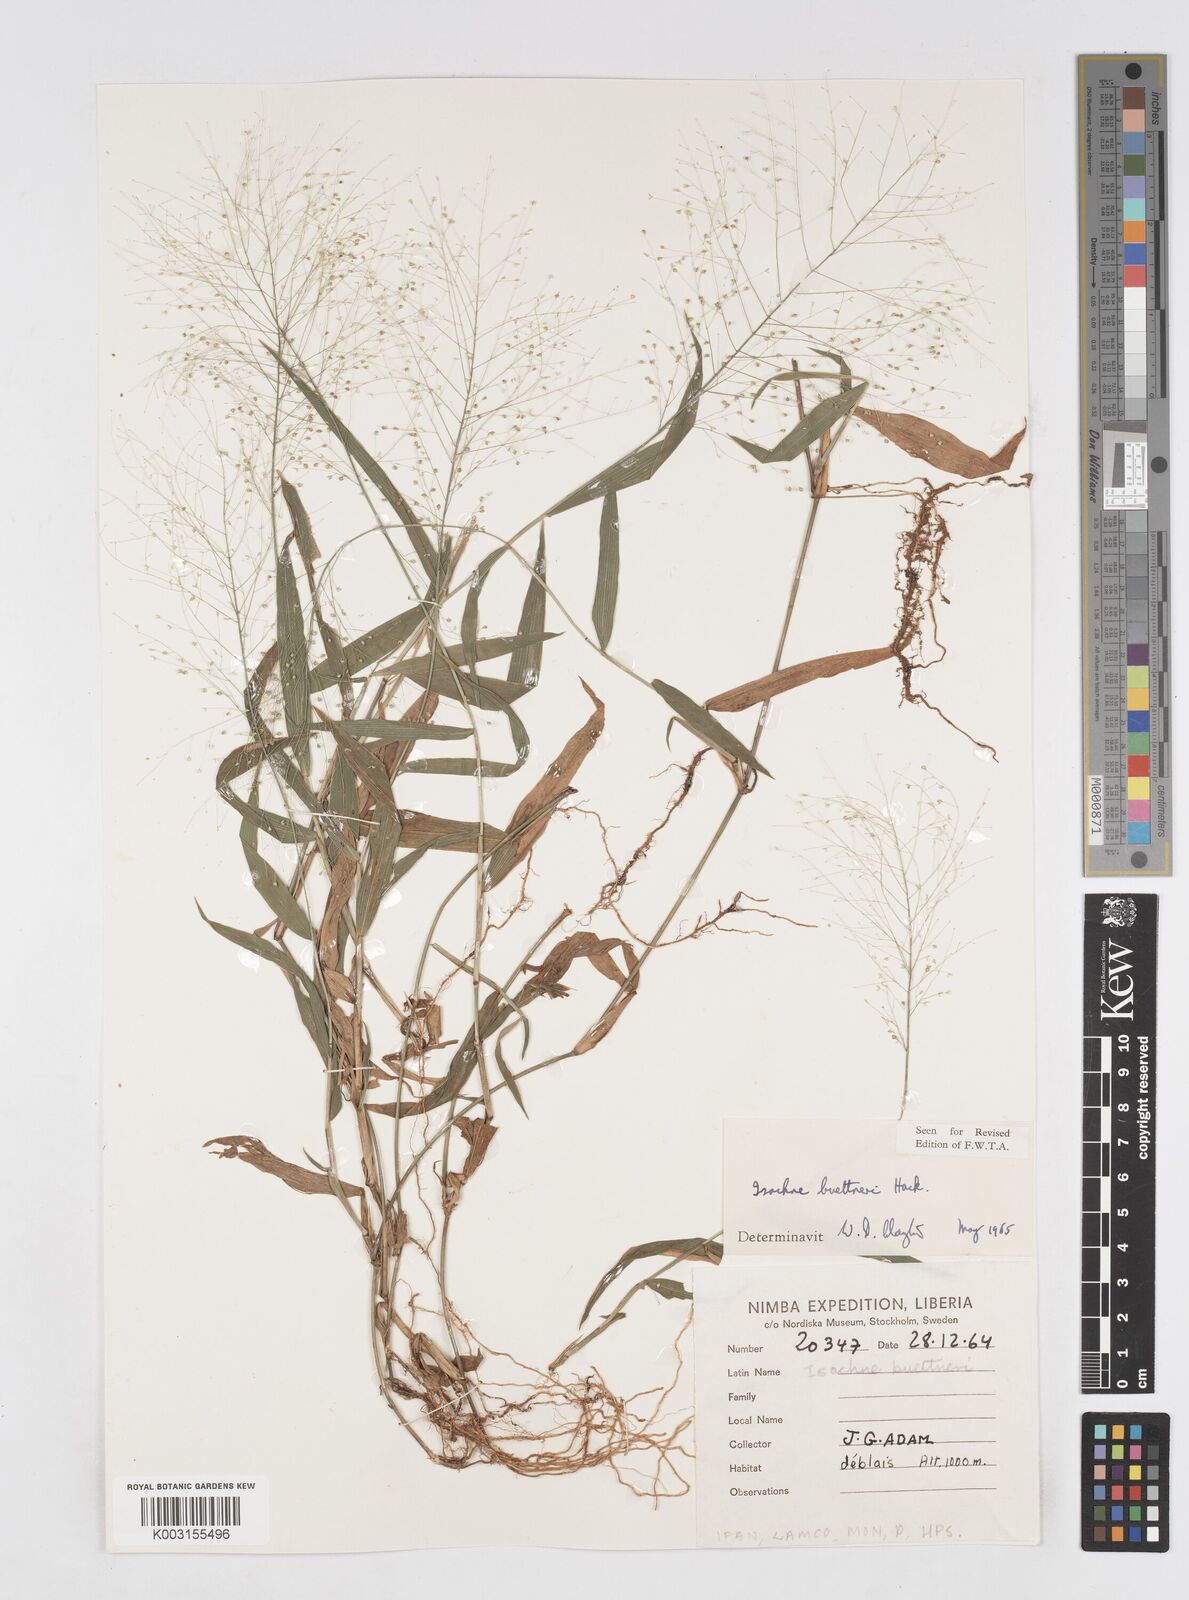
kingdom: Plantae
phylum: Tracheophyta
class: Liliopsida
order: Poales
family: Poaceae
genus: Isachne
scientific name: Isachne albens
